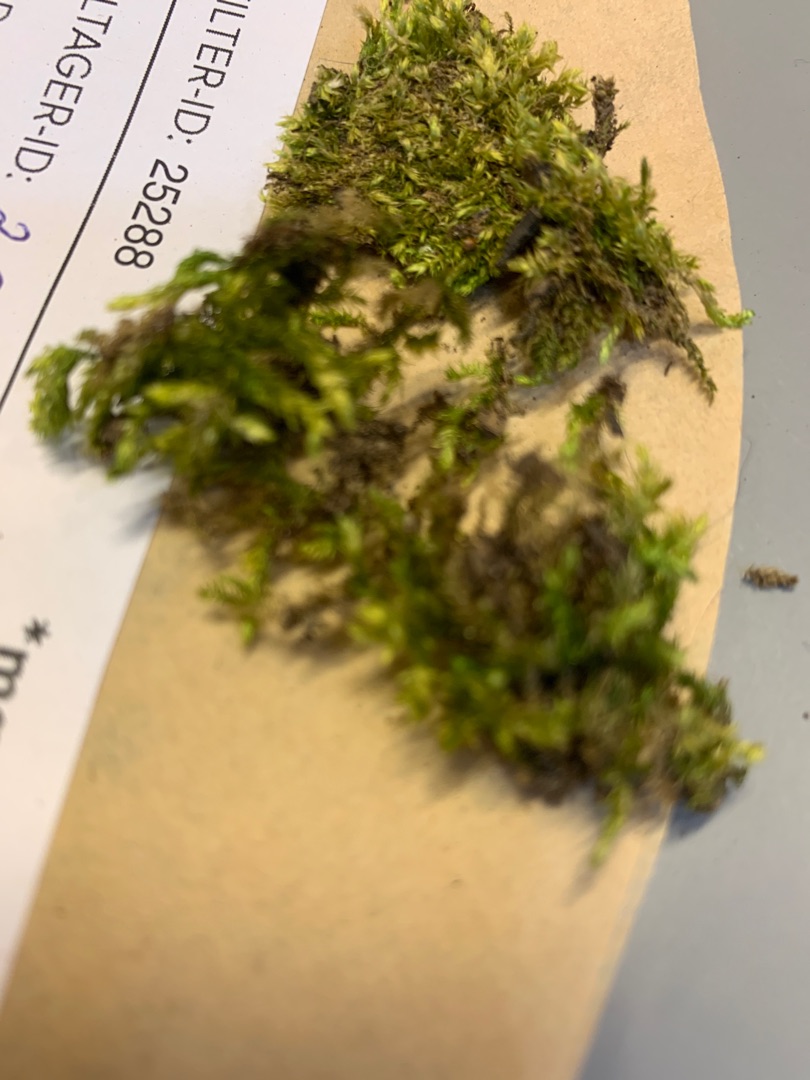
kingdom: Plantae
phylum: Bryophyta
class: Bryopsida
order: Hypnales
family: Brachytheciaceae
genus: Brachythecium
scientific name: Brachythecium rutabulum
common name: Almindelig kortkapsel
